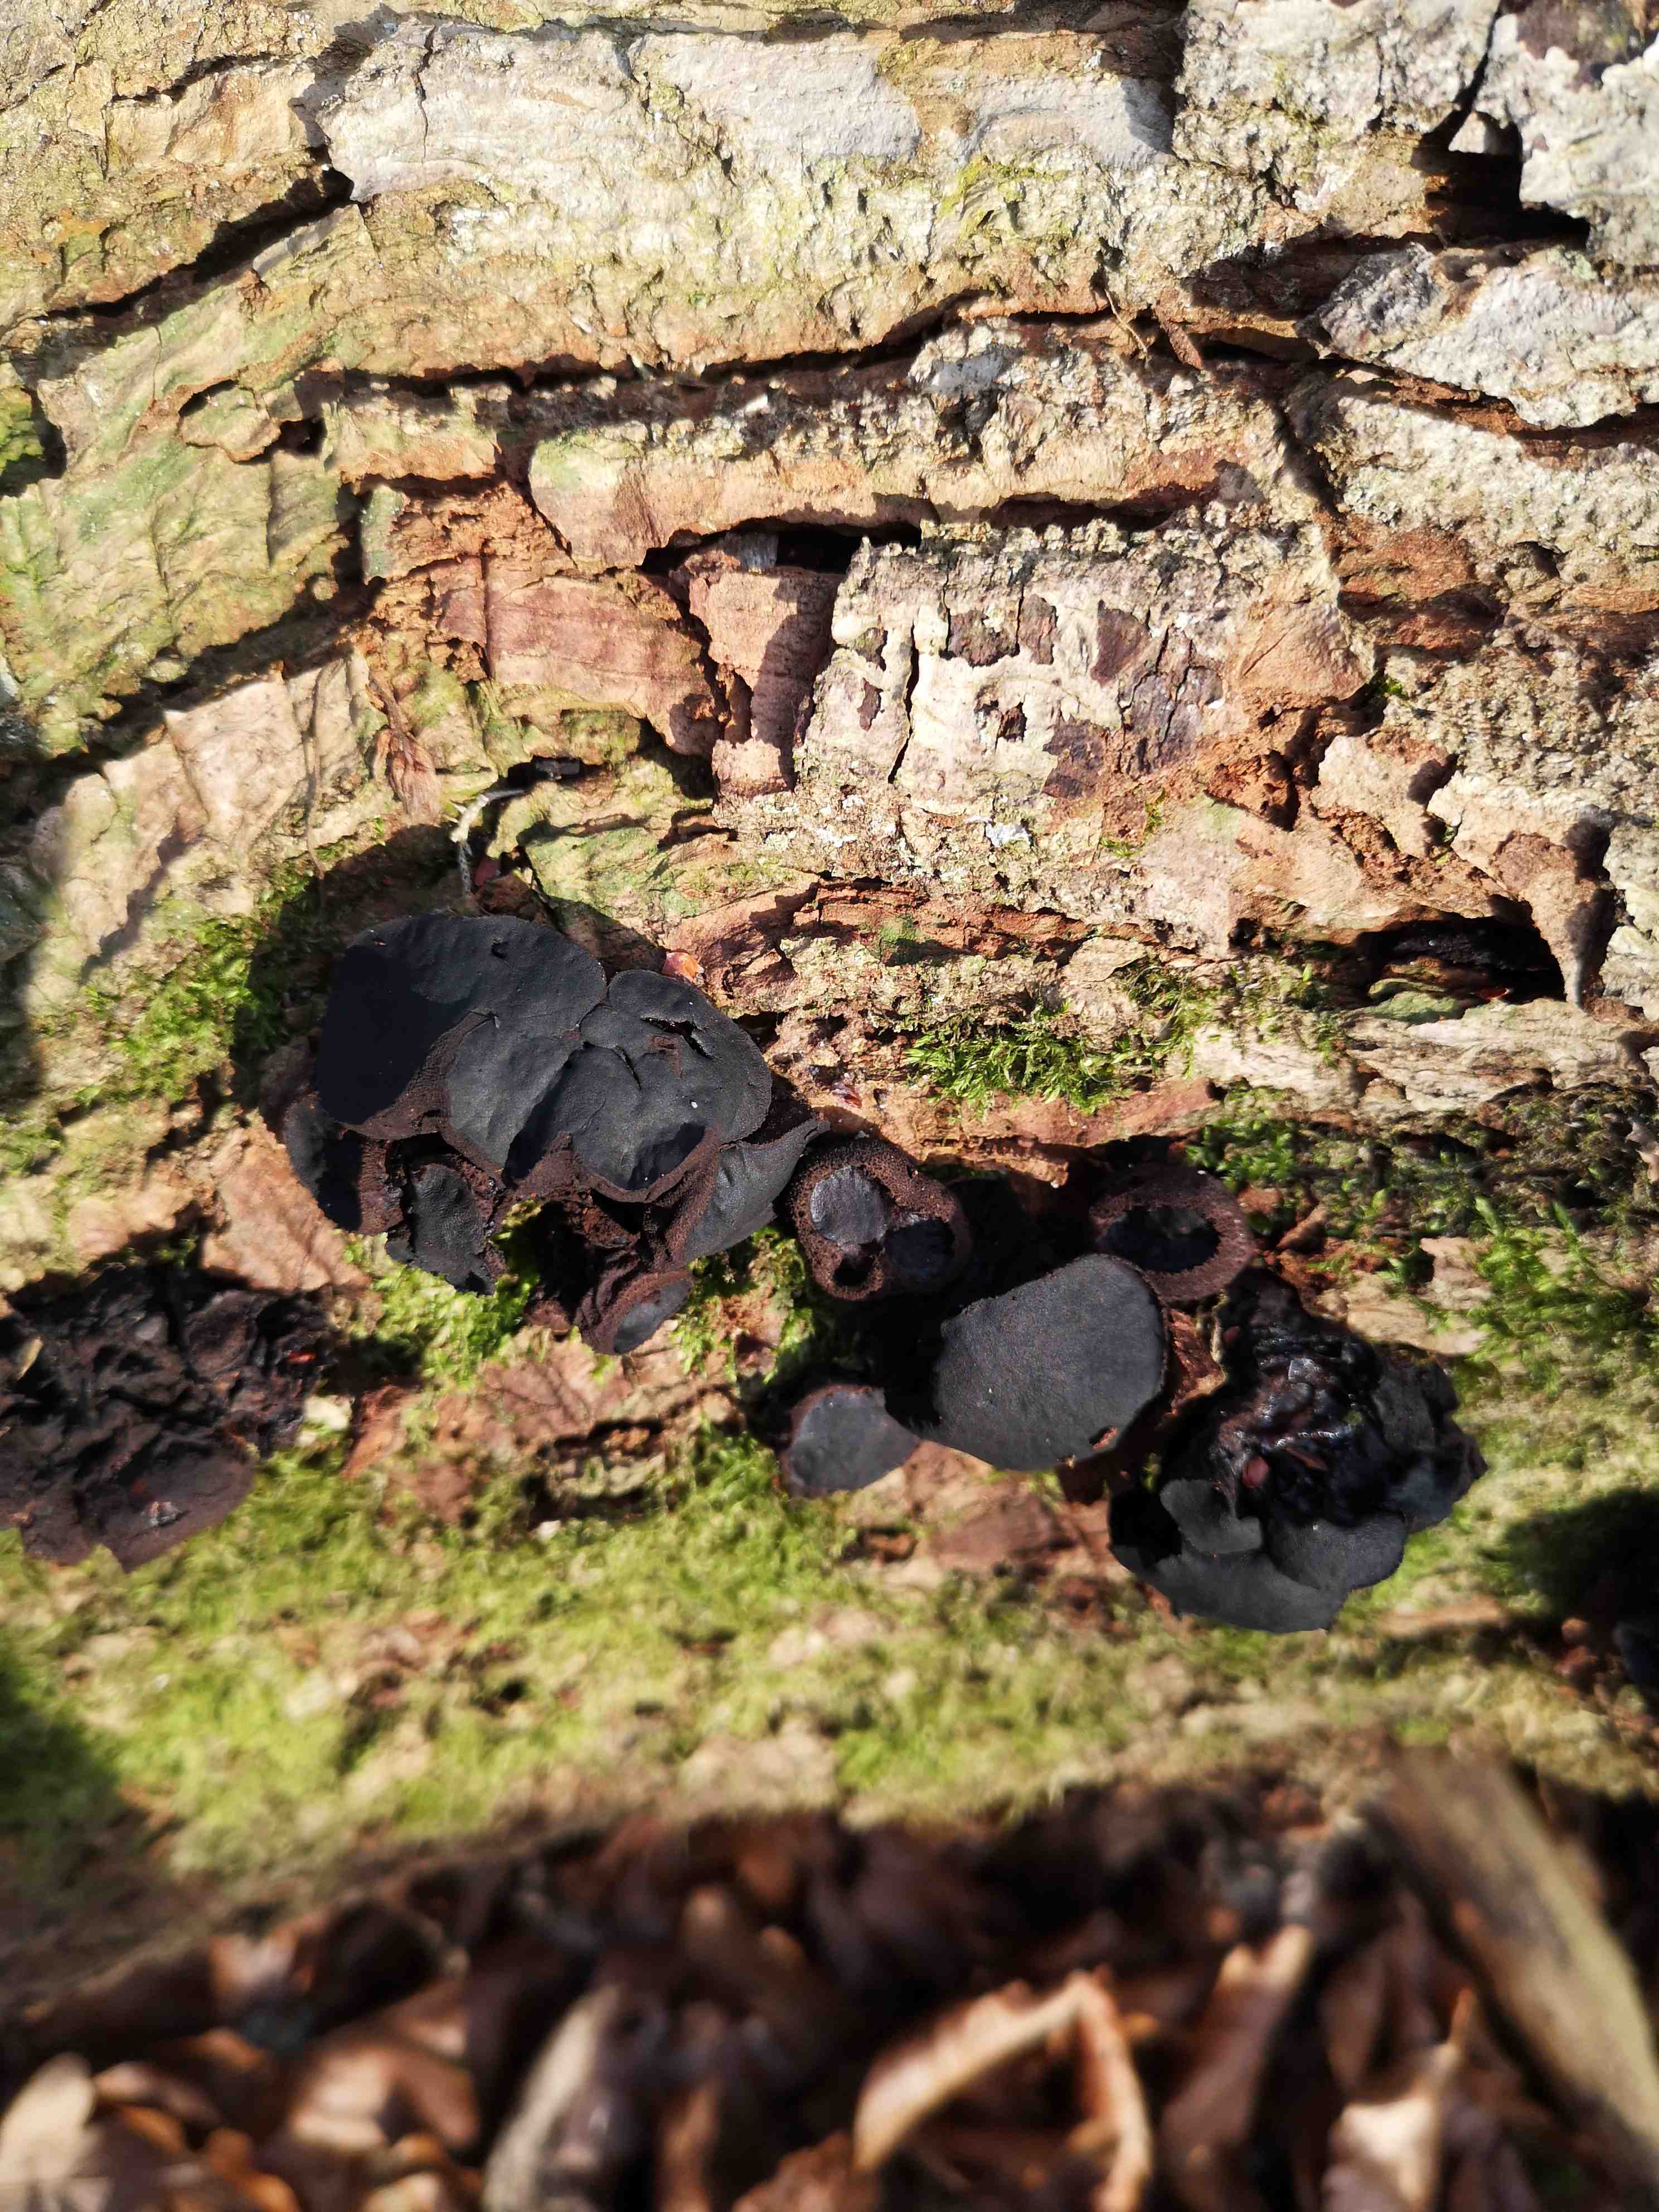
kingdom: Fungi
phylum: Ascomycota
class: Leotiomycetes
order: Phacidiales
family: Phacidiaceae
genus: Bulgaria
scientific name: Bulgaria inquinans
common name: afsmittende topsvamp
